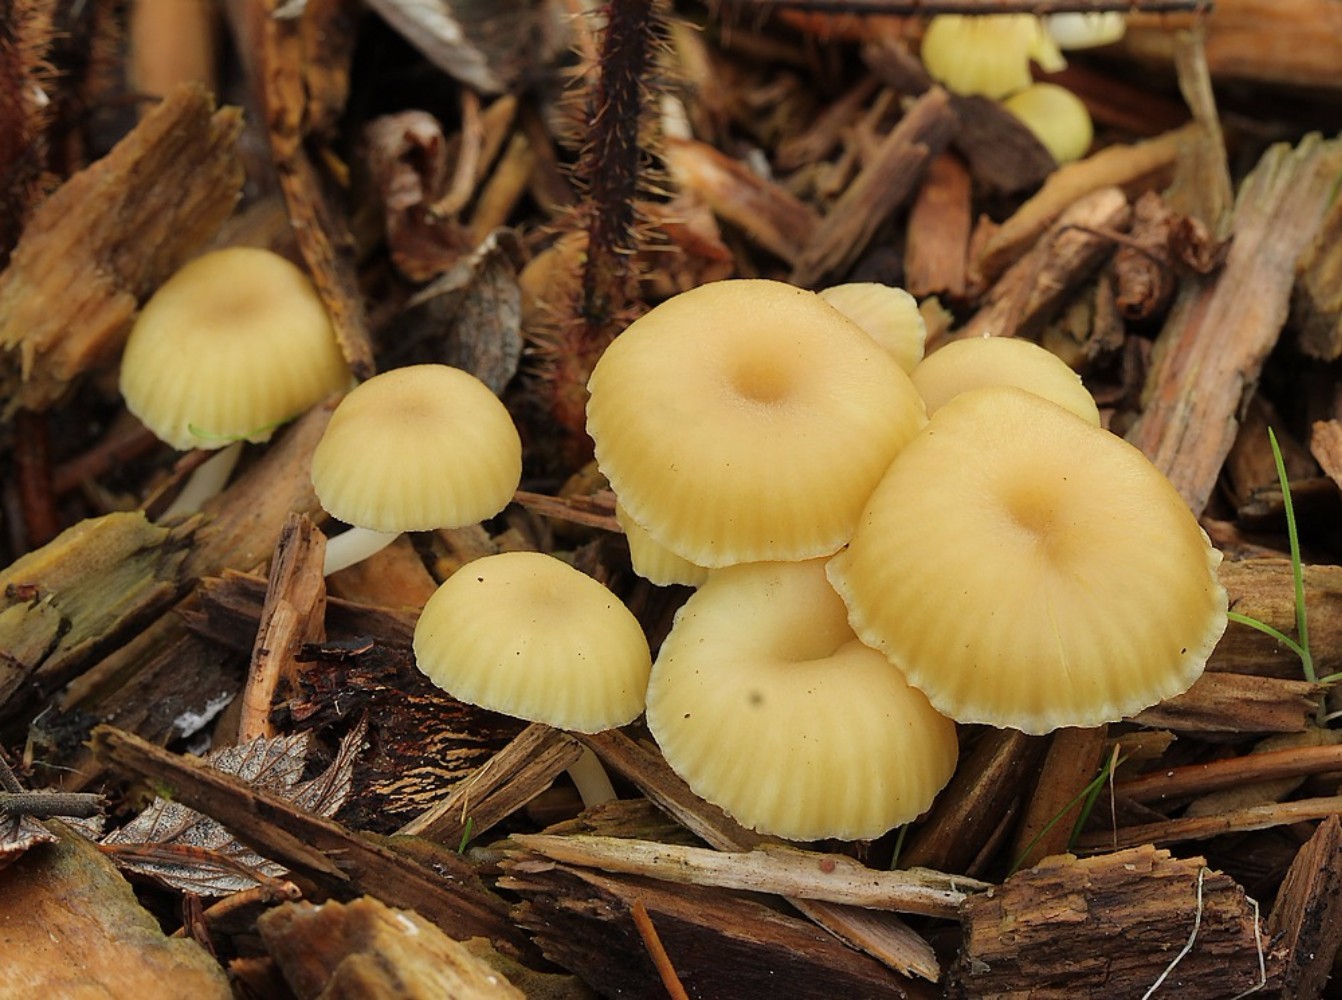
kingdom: Fungi
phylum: Basidiomycota
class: Agaricomycetes
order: Agaricales
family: Hygrophoraceae
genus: Chrysomphalina
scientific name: Chrysomphalina grossula
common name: stød-gyldenblad
